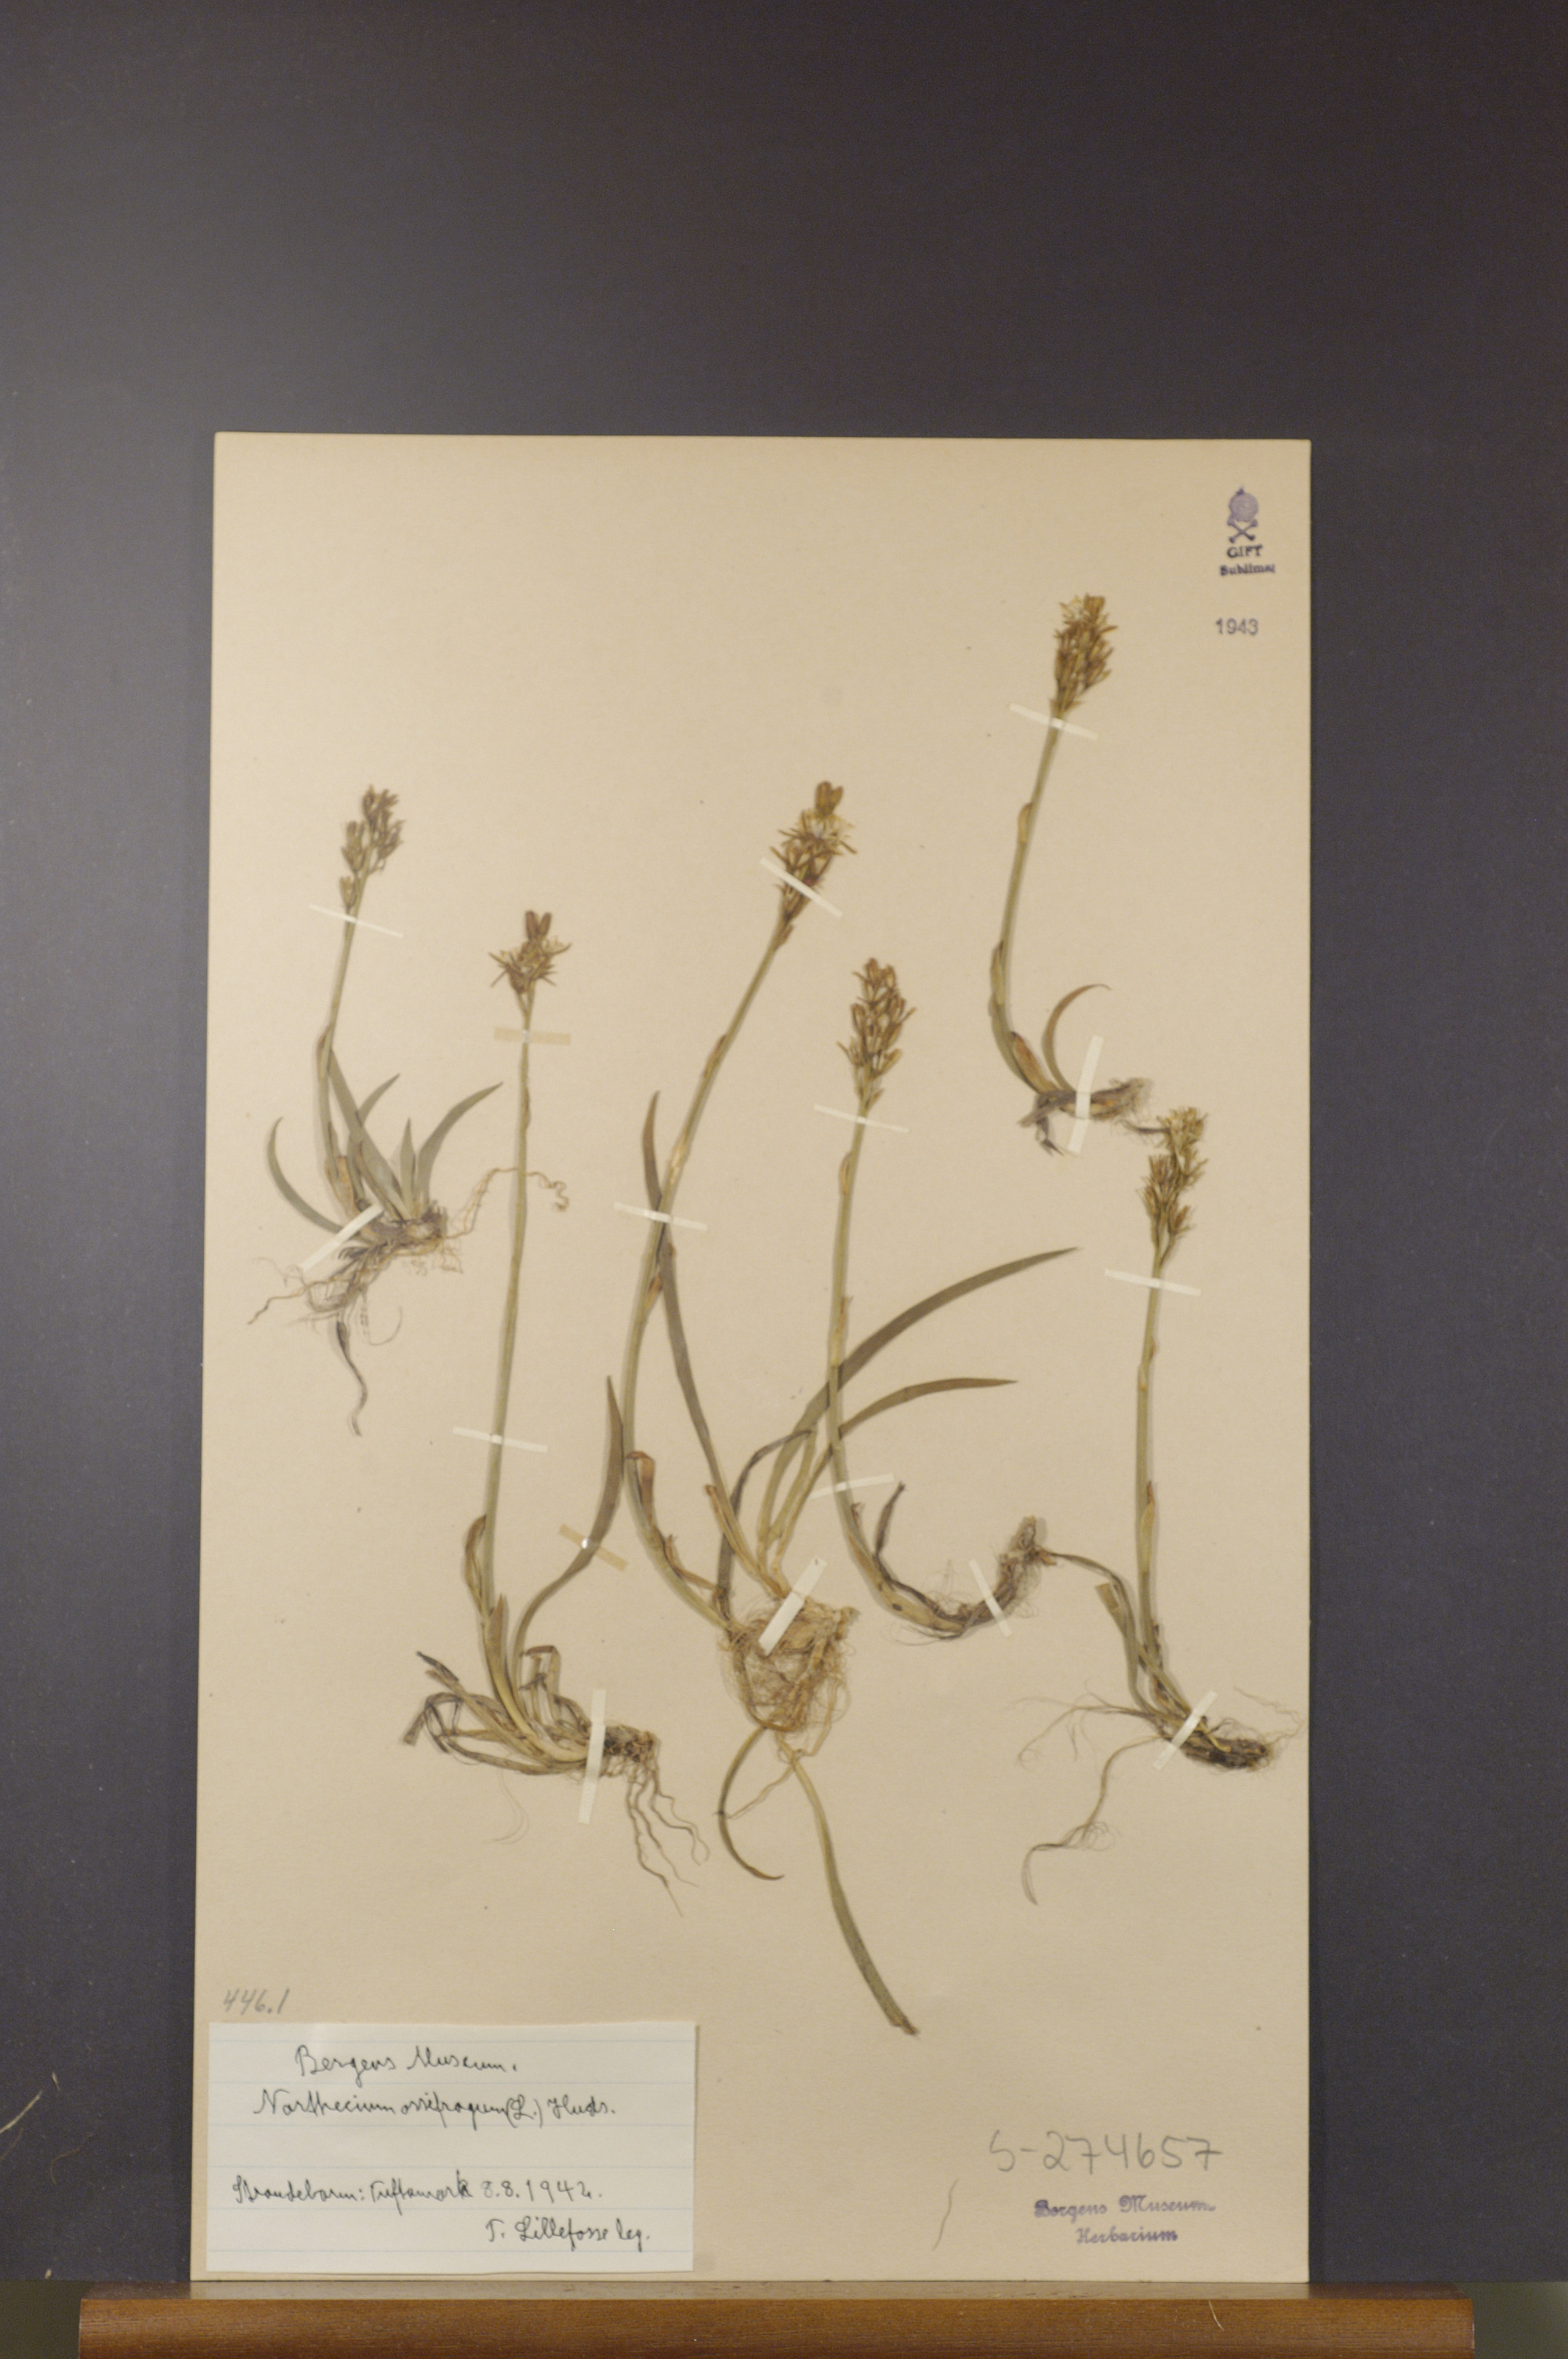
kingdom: Plantae
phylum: Tracheophyta
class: Liliopsida
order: Dioscoreales
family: Nartheciaceae
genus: Narthecium
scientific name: Narthecium ossifragum
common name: Bog asphodel
